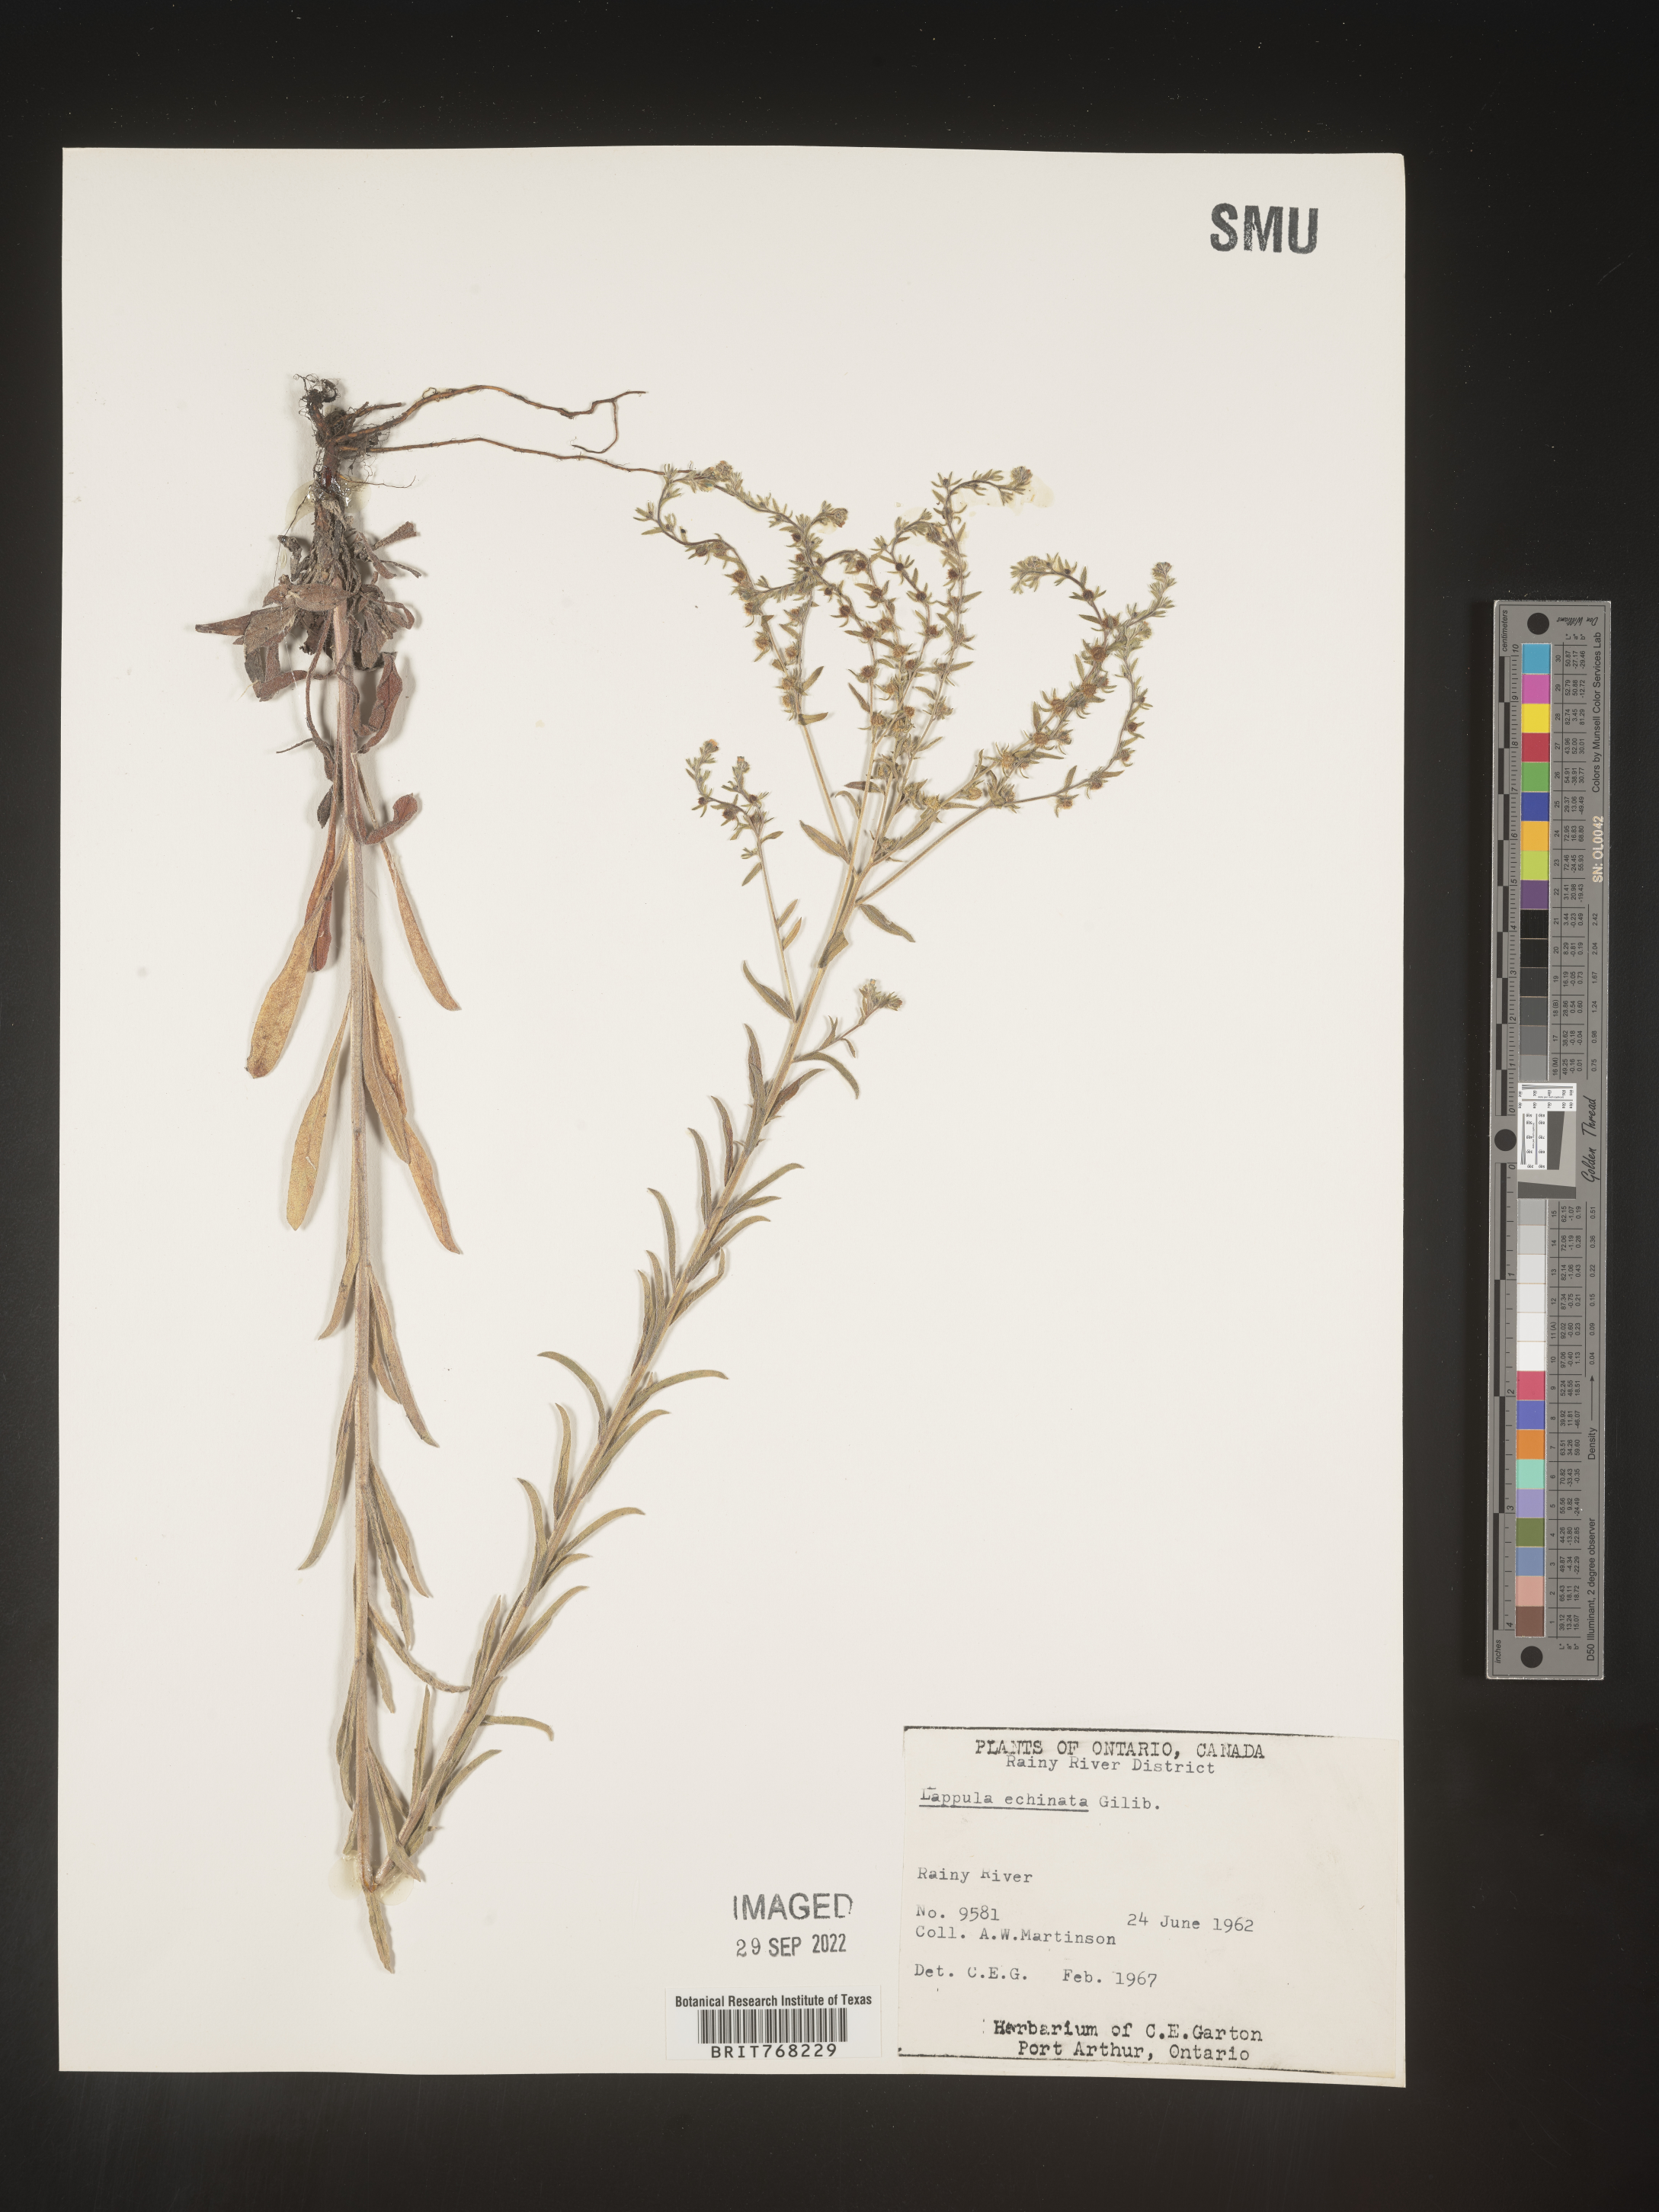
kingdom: Plantae
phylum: Tracheophyta
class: Magnoliopsida
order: Boraginales
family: Boraginaceae
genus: Lappula
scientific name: Lappula
